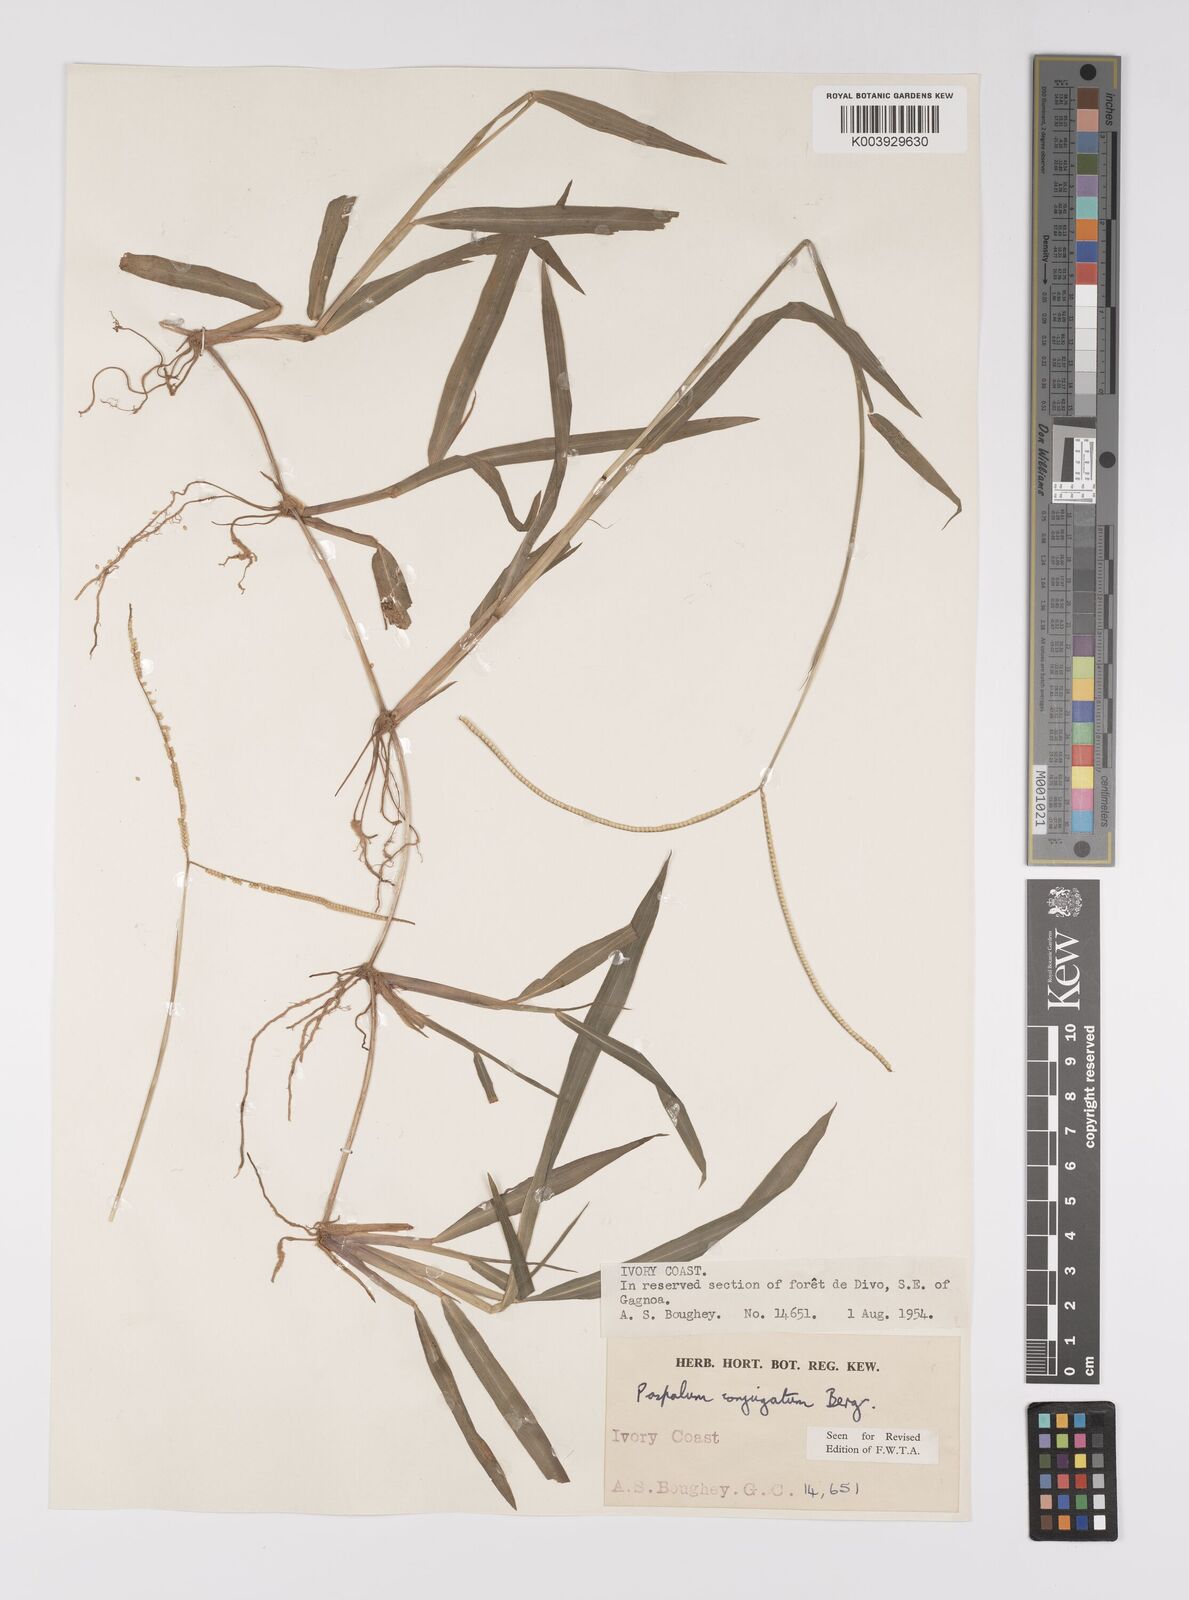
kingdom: Plantae
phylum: Tracheophyta
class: Liliopsida
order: Poales
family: Poaceae
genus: Paspalum
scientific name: Paspalum conjugatum
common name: Hilograss
